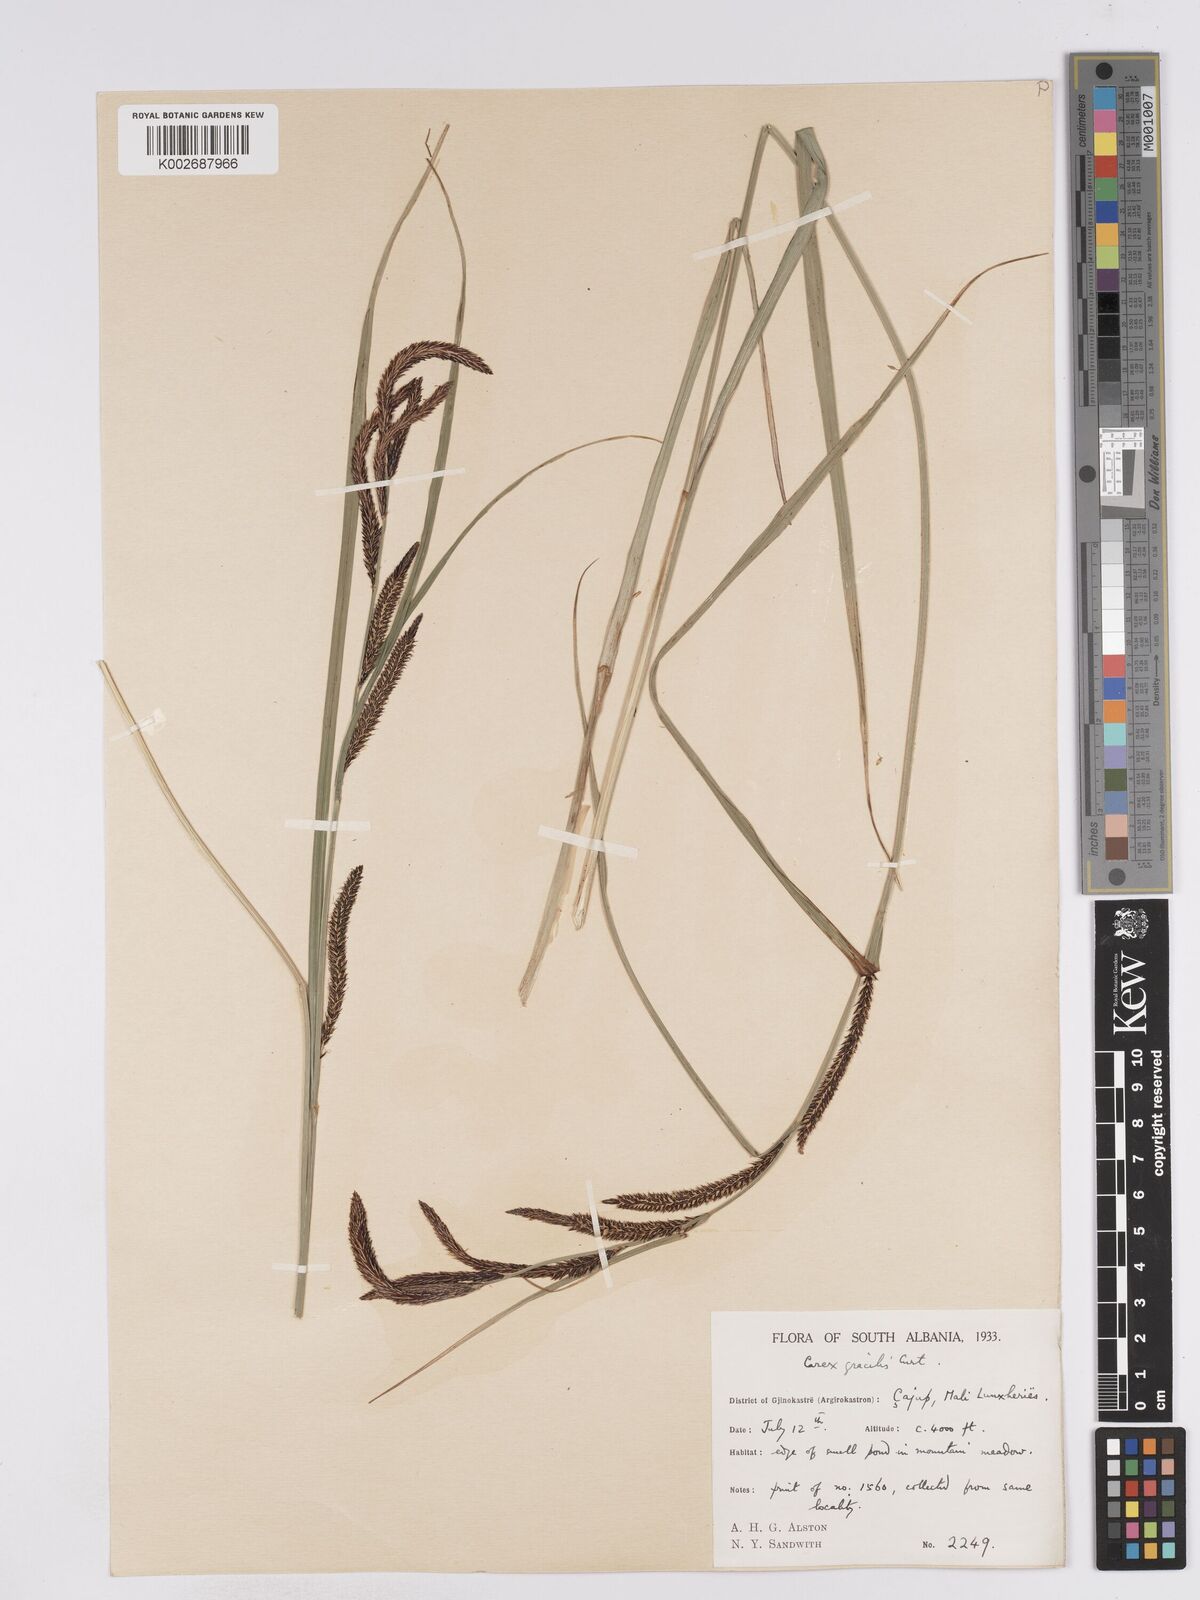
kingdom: Plantae
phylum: Tracheophyta
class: Liliopsida
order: Poales
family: Cyperaceae
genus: Carex
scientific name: Carex acuta
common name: Slender tufted-sedge
